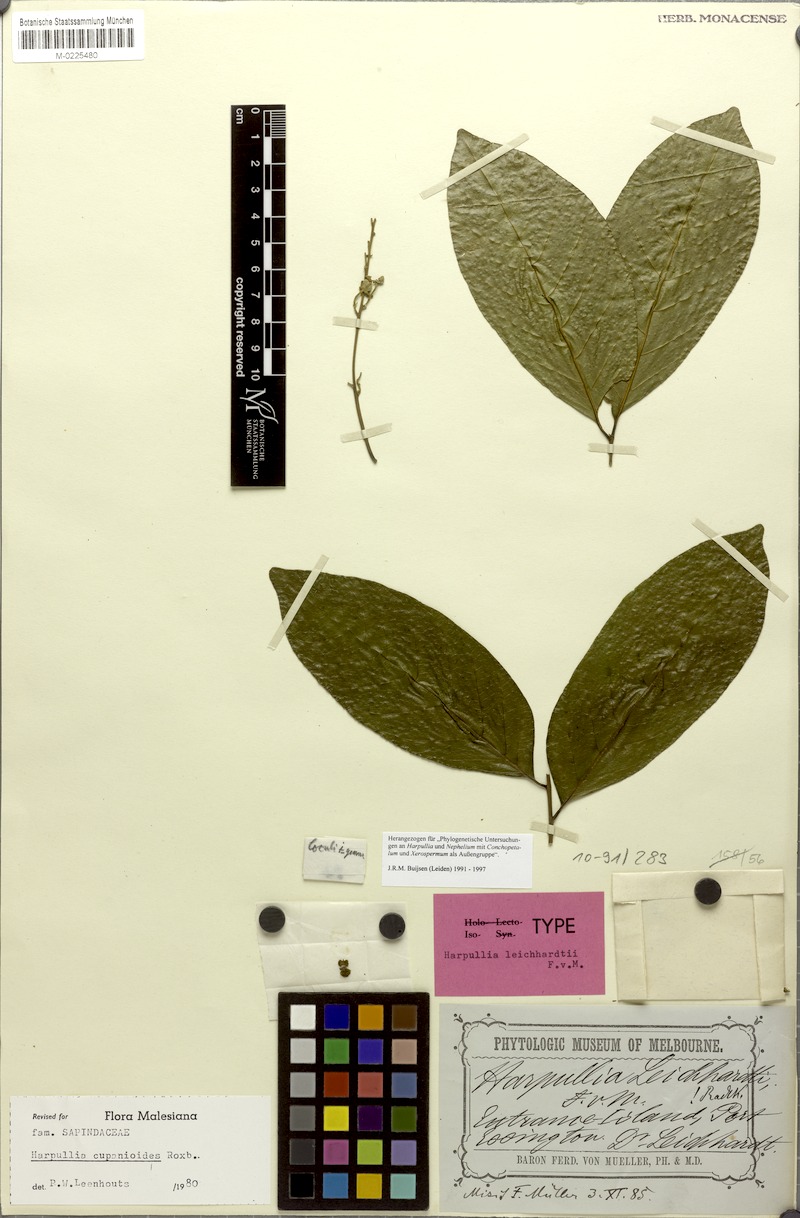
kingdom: Plantae
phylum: Tracheophyta
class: Magnoliopsida
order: Sapindales
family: Sapindaceae
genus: Harpullia
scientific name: Harpullia cupanioides
